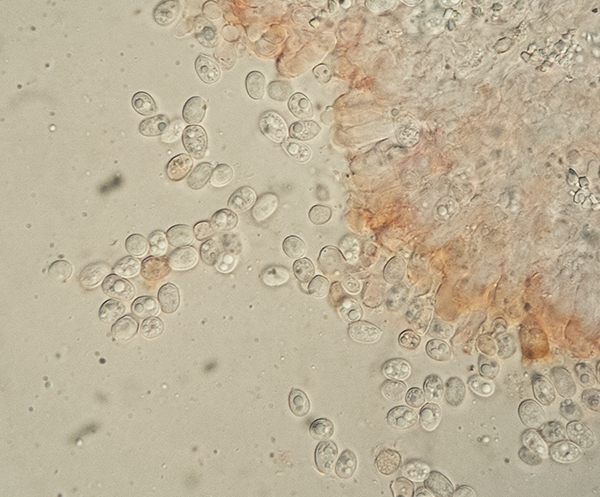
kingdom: Fungi
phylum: Basidiomycota
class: Agaricomycetes
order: Agaricales
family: Stephanosporaceae
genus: Cristinia
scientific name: Cristinia
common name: citrushinde
